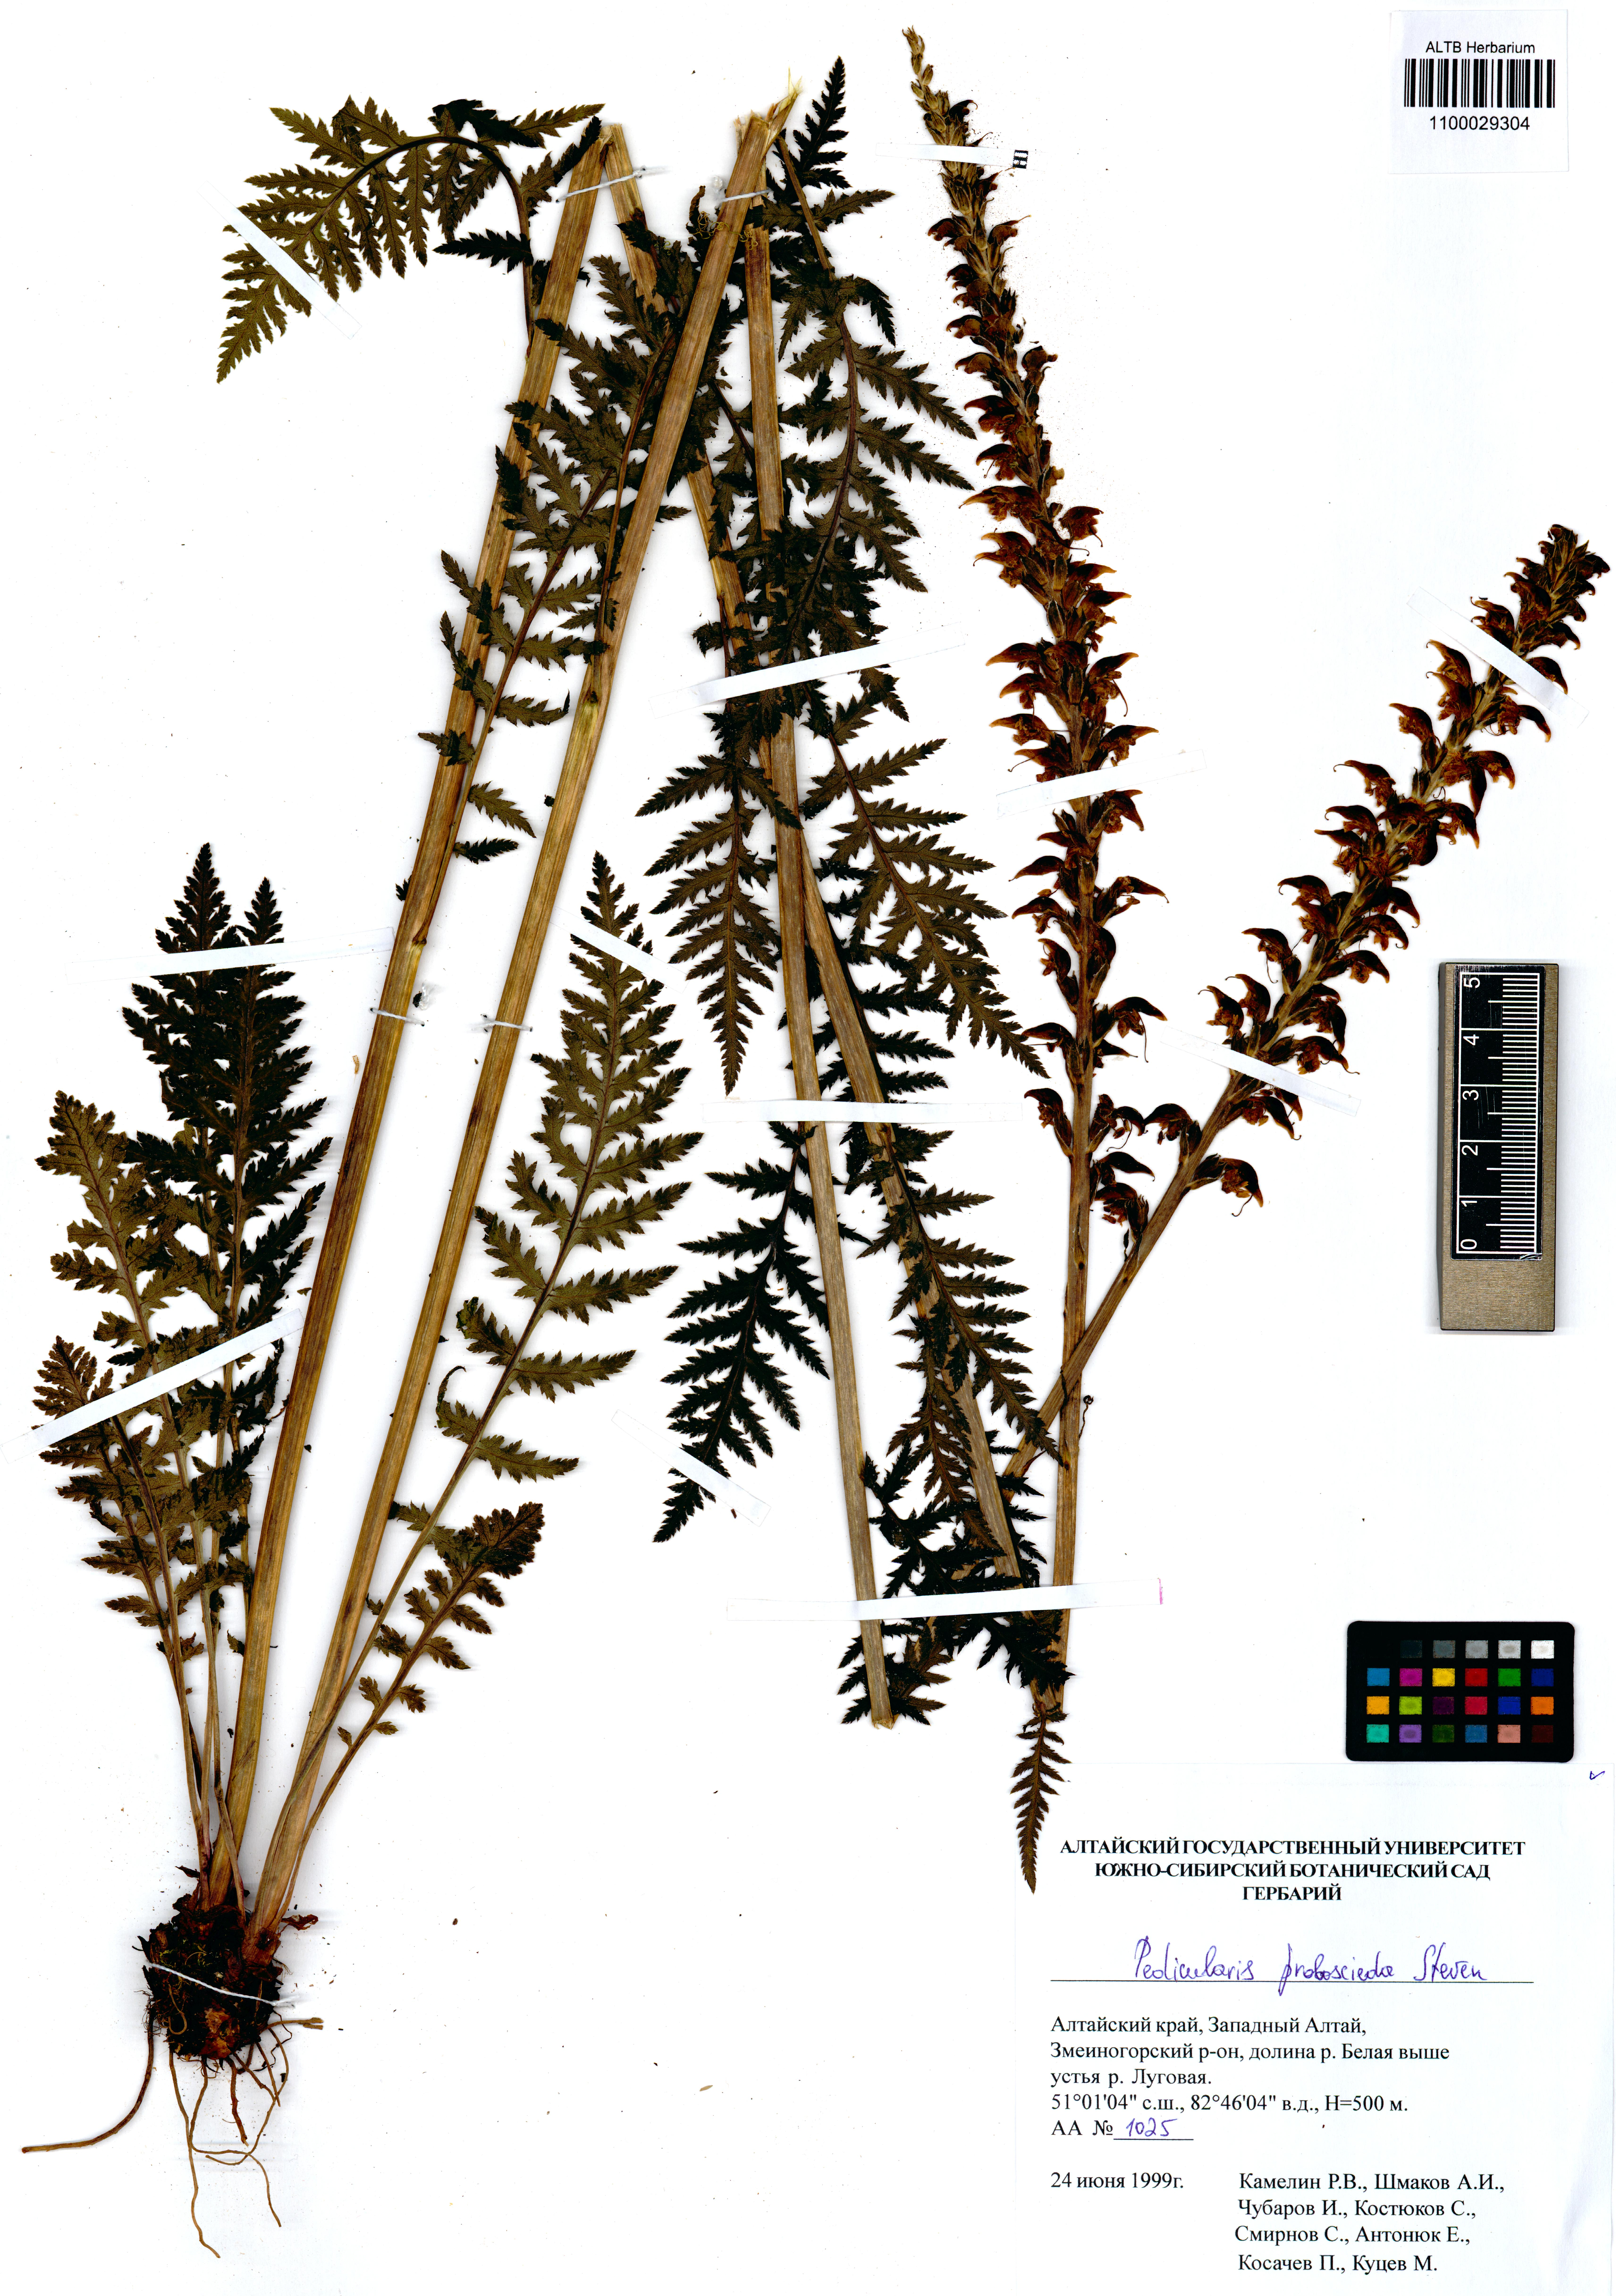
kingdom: Plantae
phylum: Tracheophyta
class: Magnoliopsida
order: Lamiales
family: Orobanchaceae
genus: Pedicularis
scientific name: Pedicularis proboscidea
